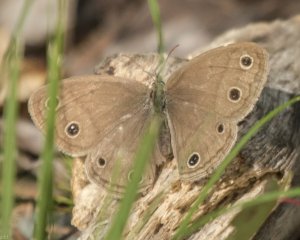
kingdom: Animalia
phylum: Arthropoda
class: Insecta
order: Lepidoptera
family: Nymphalidae
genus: Euptychia
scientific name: Euptychia cymela
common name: Little Wood Satyr
